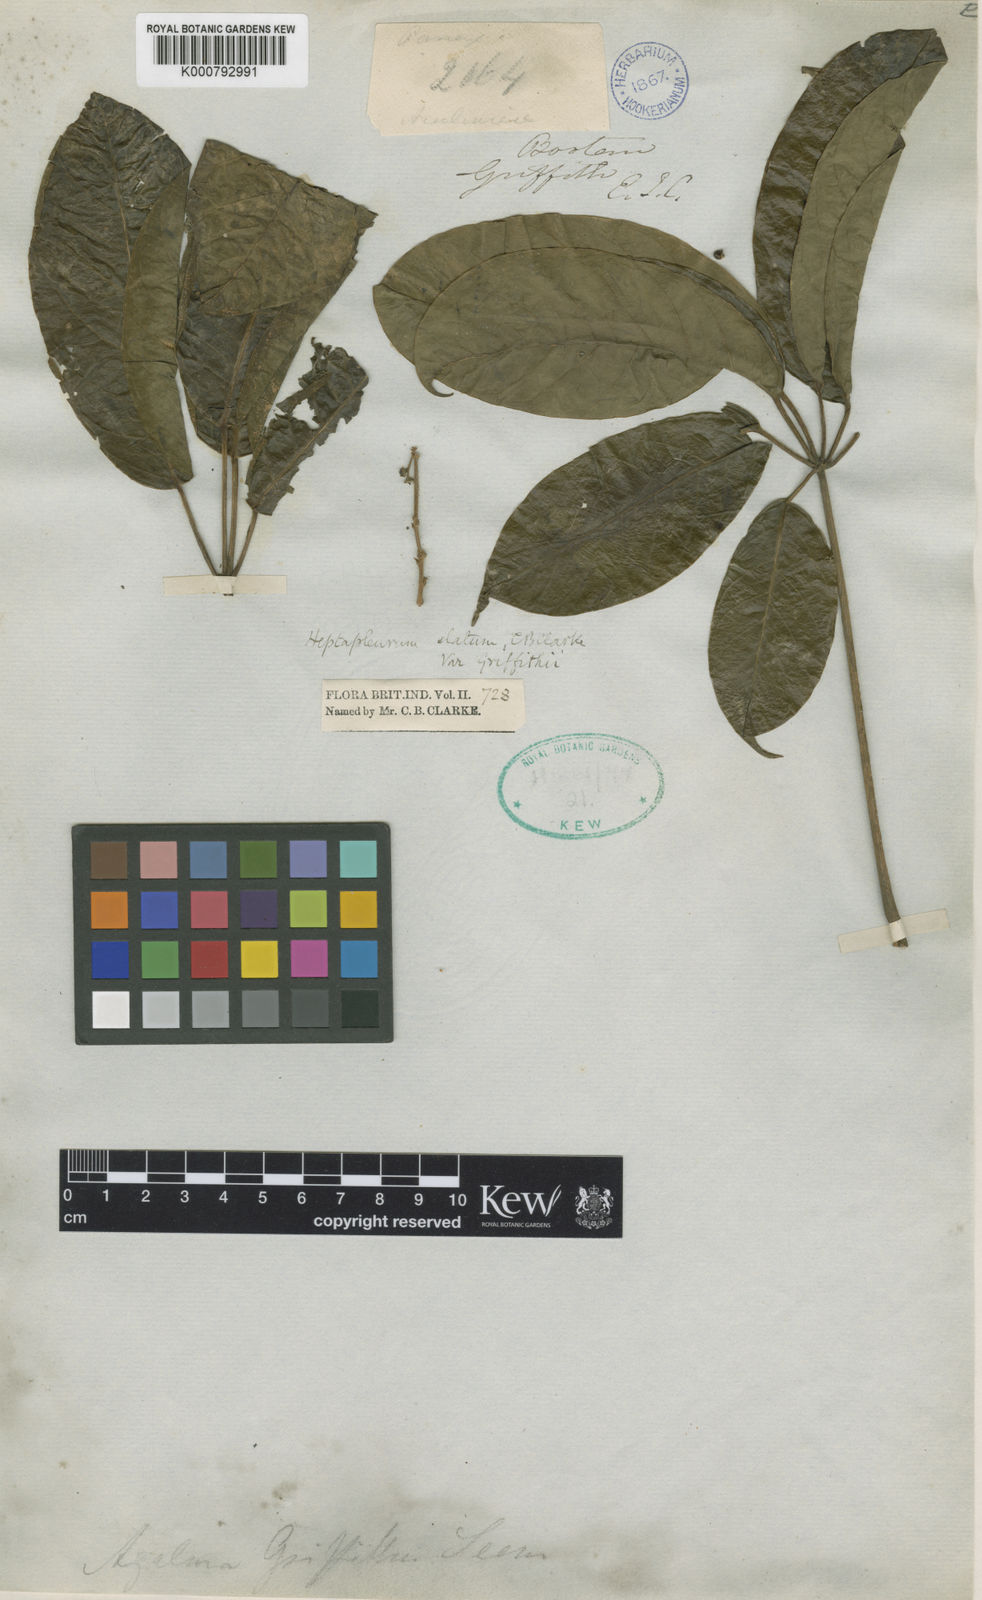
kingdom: Plantae
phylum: Tracheophyta
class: Magnoliopsida
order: Apiales
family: Araliaceae
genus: Heptapleurum
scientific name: Heptapleurum elatum
